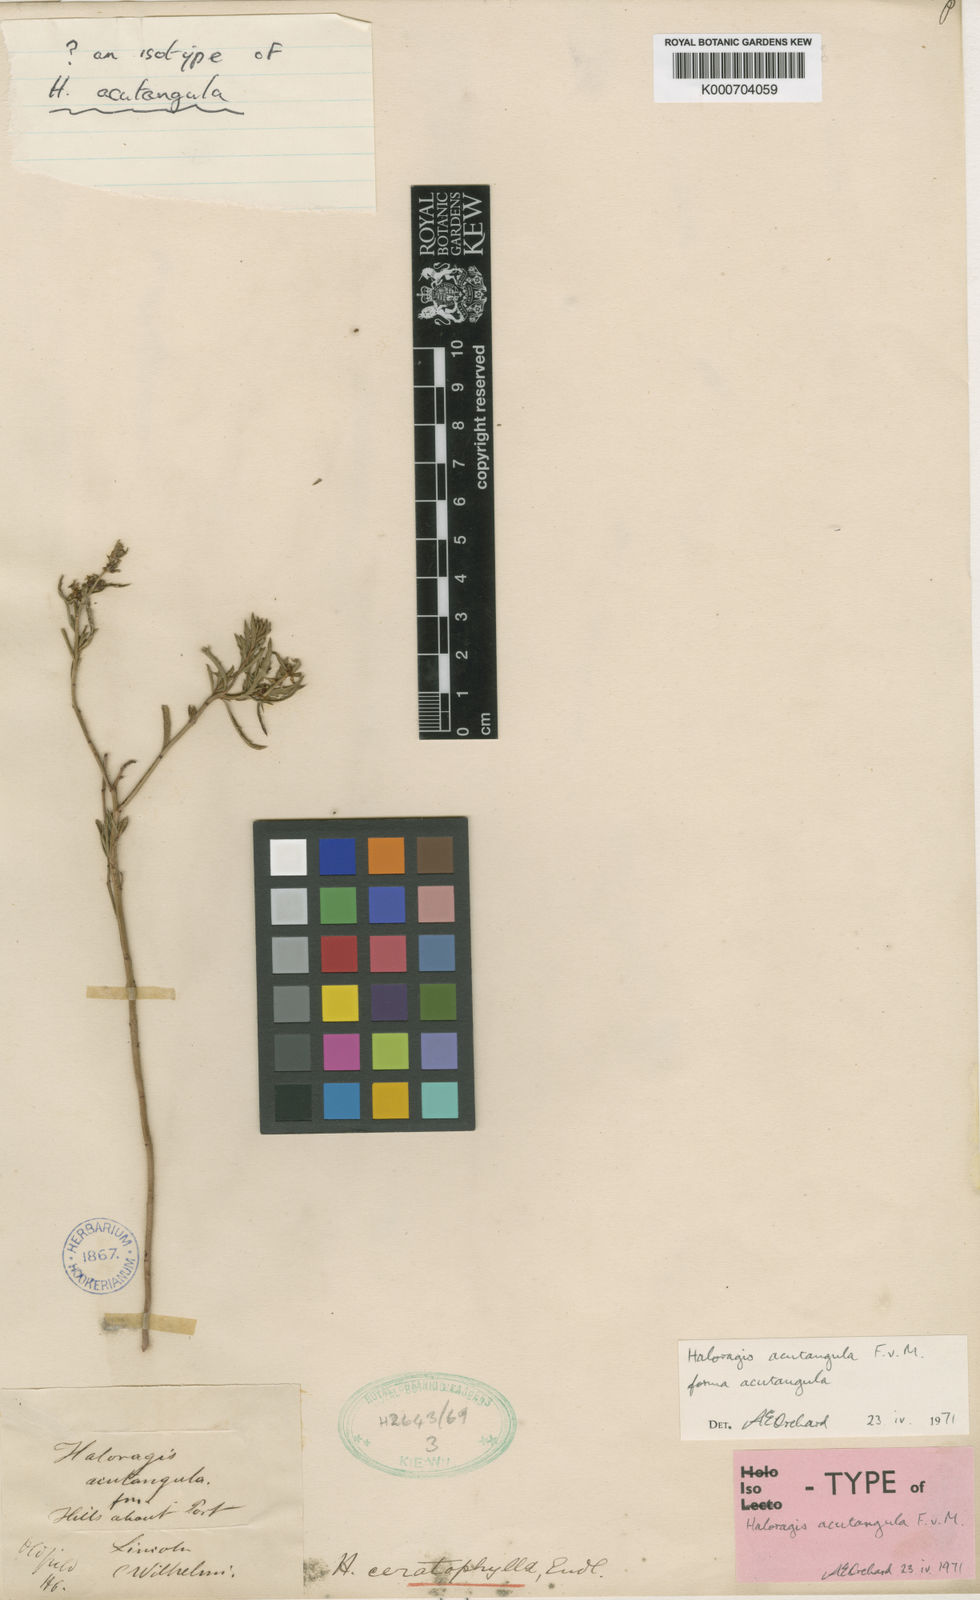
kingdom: Plantae
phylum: Tracheophyta
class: Magnoliopsida
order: Saxifragales
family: Haloragaceae
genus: Haloragis
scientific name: Haloragis acutangula
